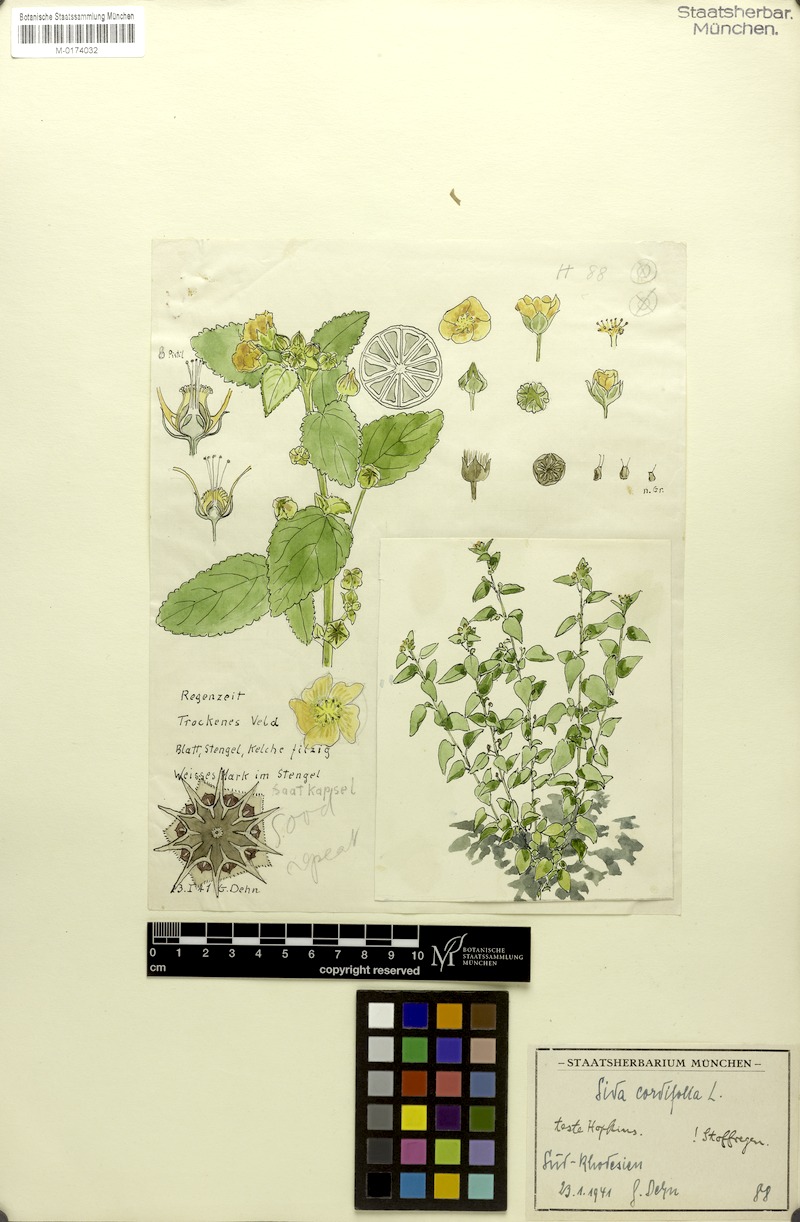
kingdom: Plantae
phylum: Tracheophyta
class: Magnoliopsida
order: Malvales
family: Malvaceae
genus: Sida
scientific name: Sida cordifolia
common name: Ilima
